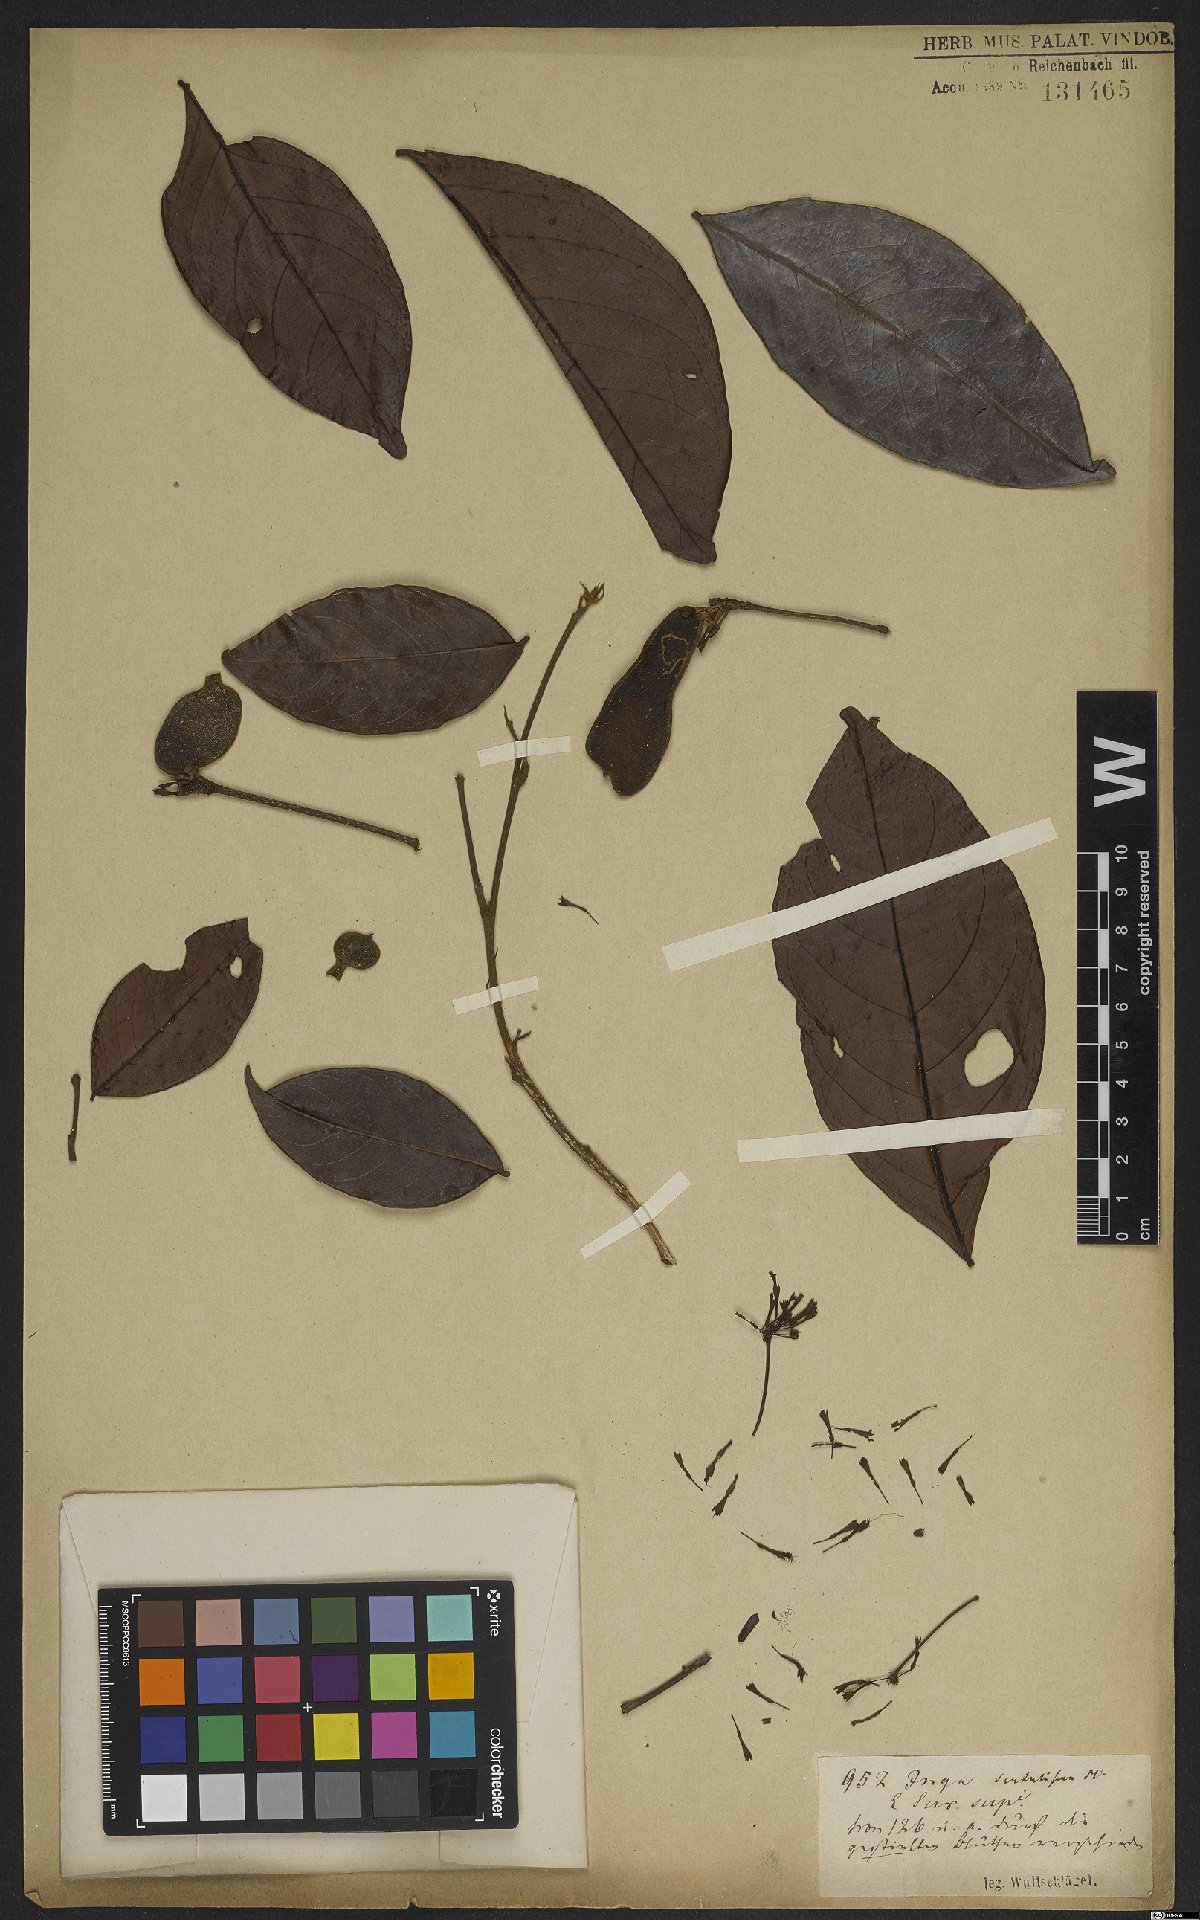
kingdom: Plantae
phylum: Tracheophyta
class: Magnoliopsida
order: Fabales
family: Fabaceae
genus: Inga
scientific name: Inga sertulifera
